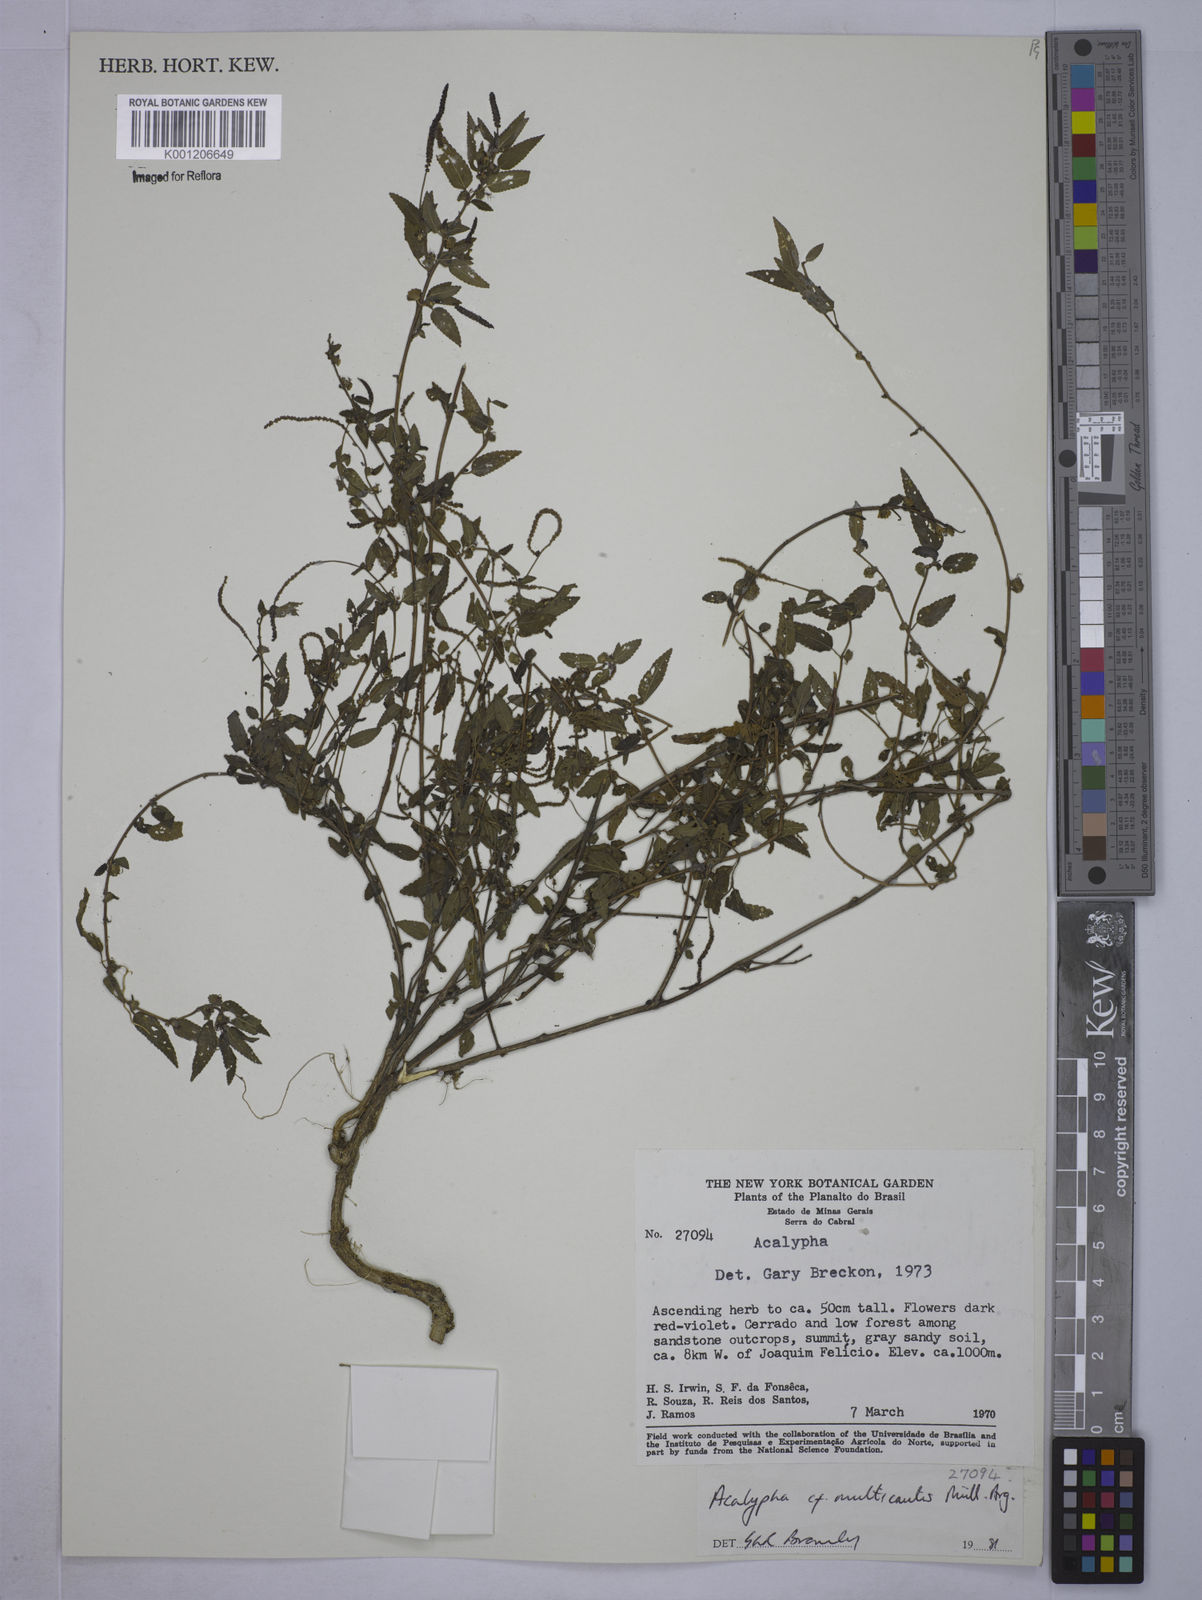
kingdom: Plantae
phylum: Tracheophyta
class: Magnoliopsida
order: Malpighiales
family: Euphorbiaceae
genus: Acalypha
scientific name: Acalypha
